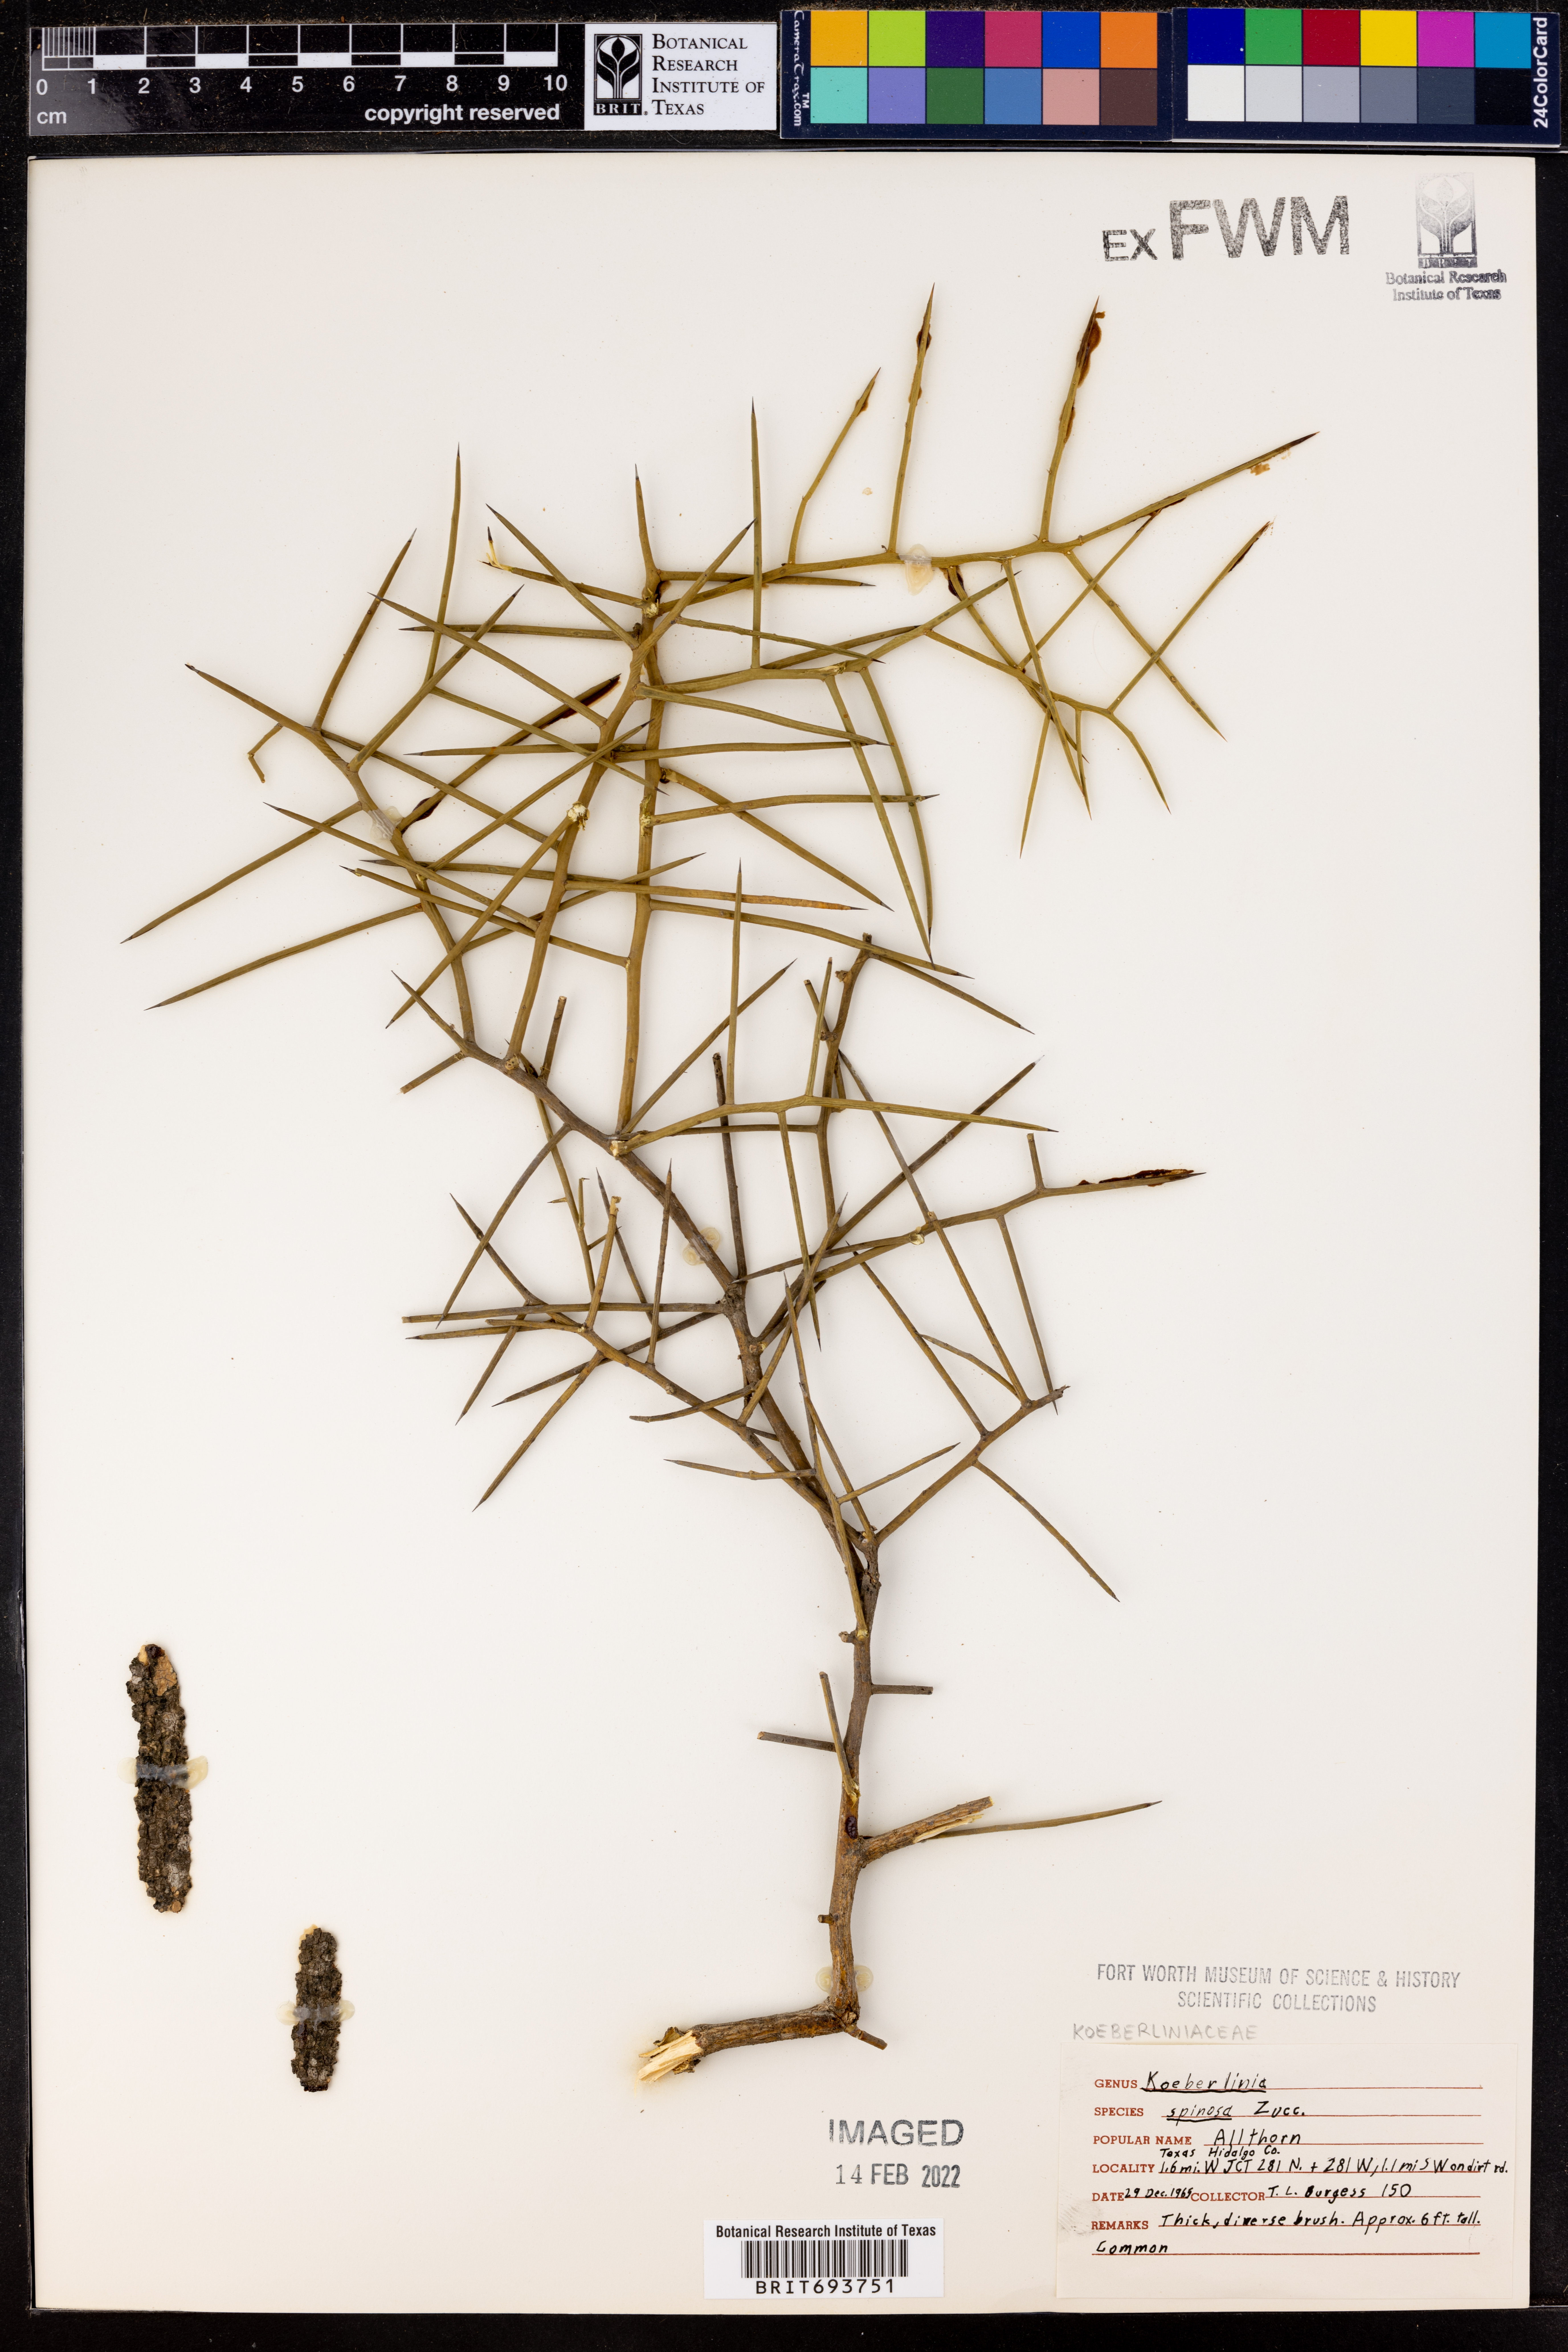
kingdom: Plantae
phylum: Tracheophyta
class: Magnoliopsida
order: Brassicales
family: Koeberliniaceae
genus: Koeberlinia
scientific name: Koeberlinia spinosa
